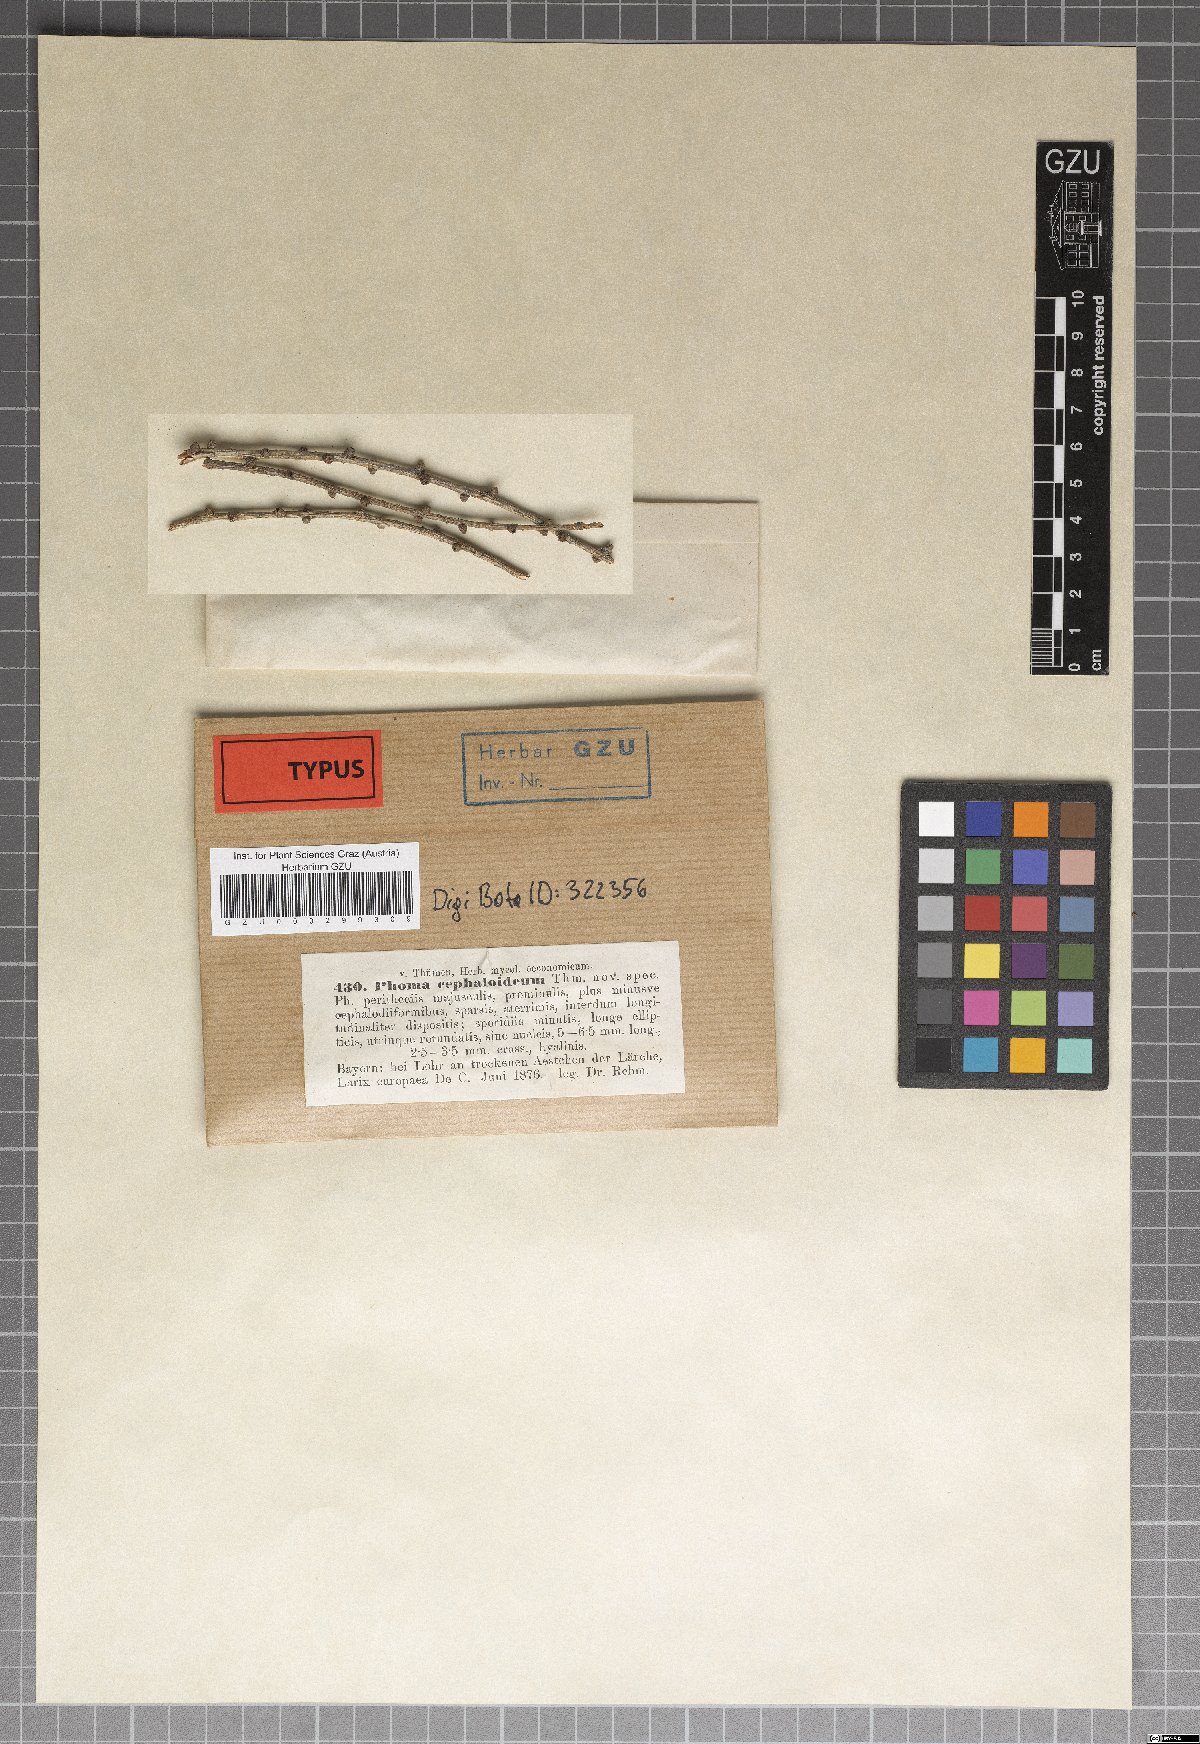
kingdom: Fungi
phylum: Ascomycota
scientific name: Ascomycota
